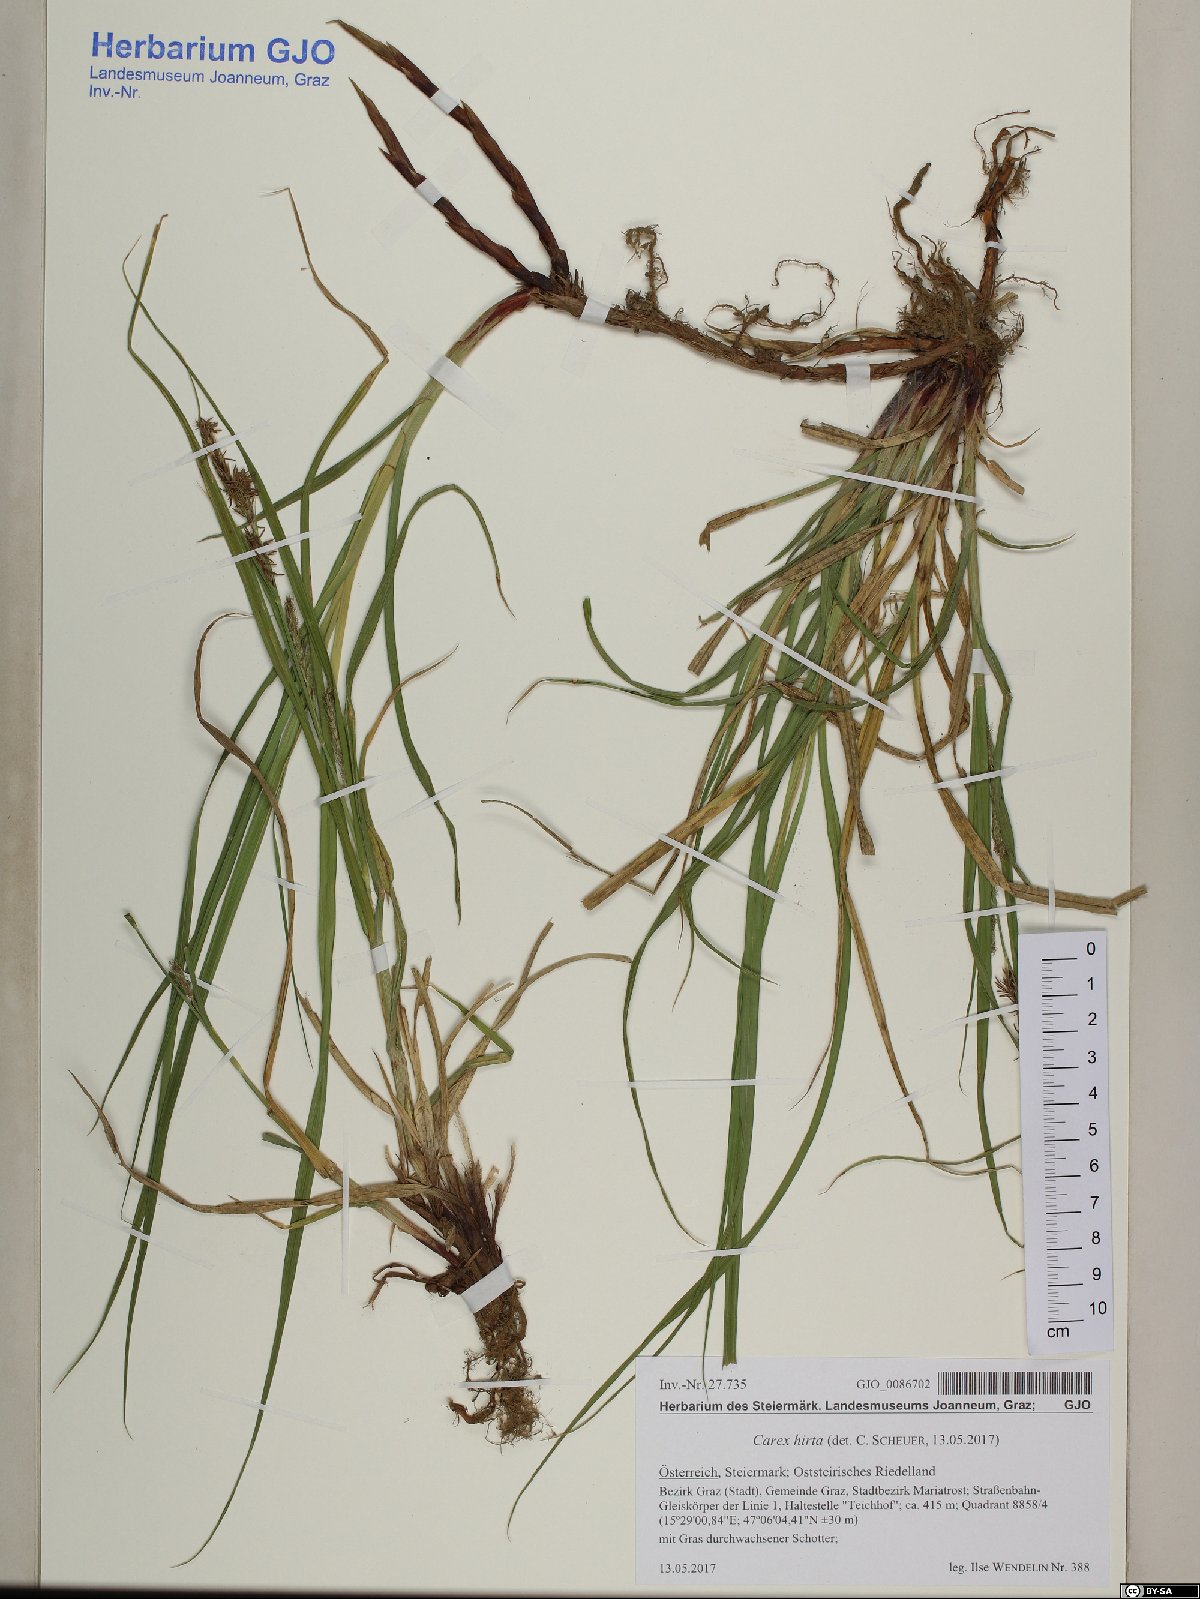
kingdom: Plantae
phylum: Tracheophyta
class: Liliopsida
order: Poales
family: Cyperaceae
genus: Carex
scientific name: Carex hirta
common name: Hairy sedge
